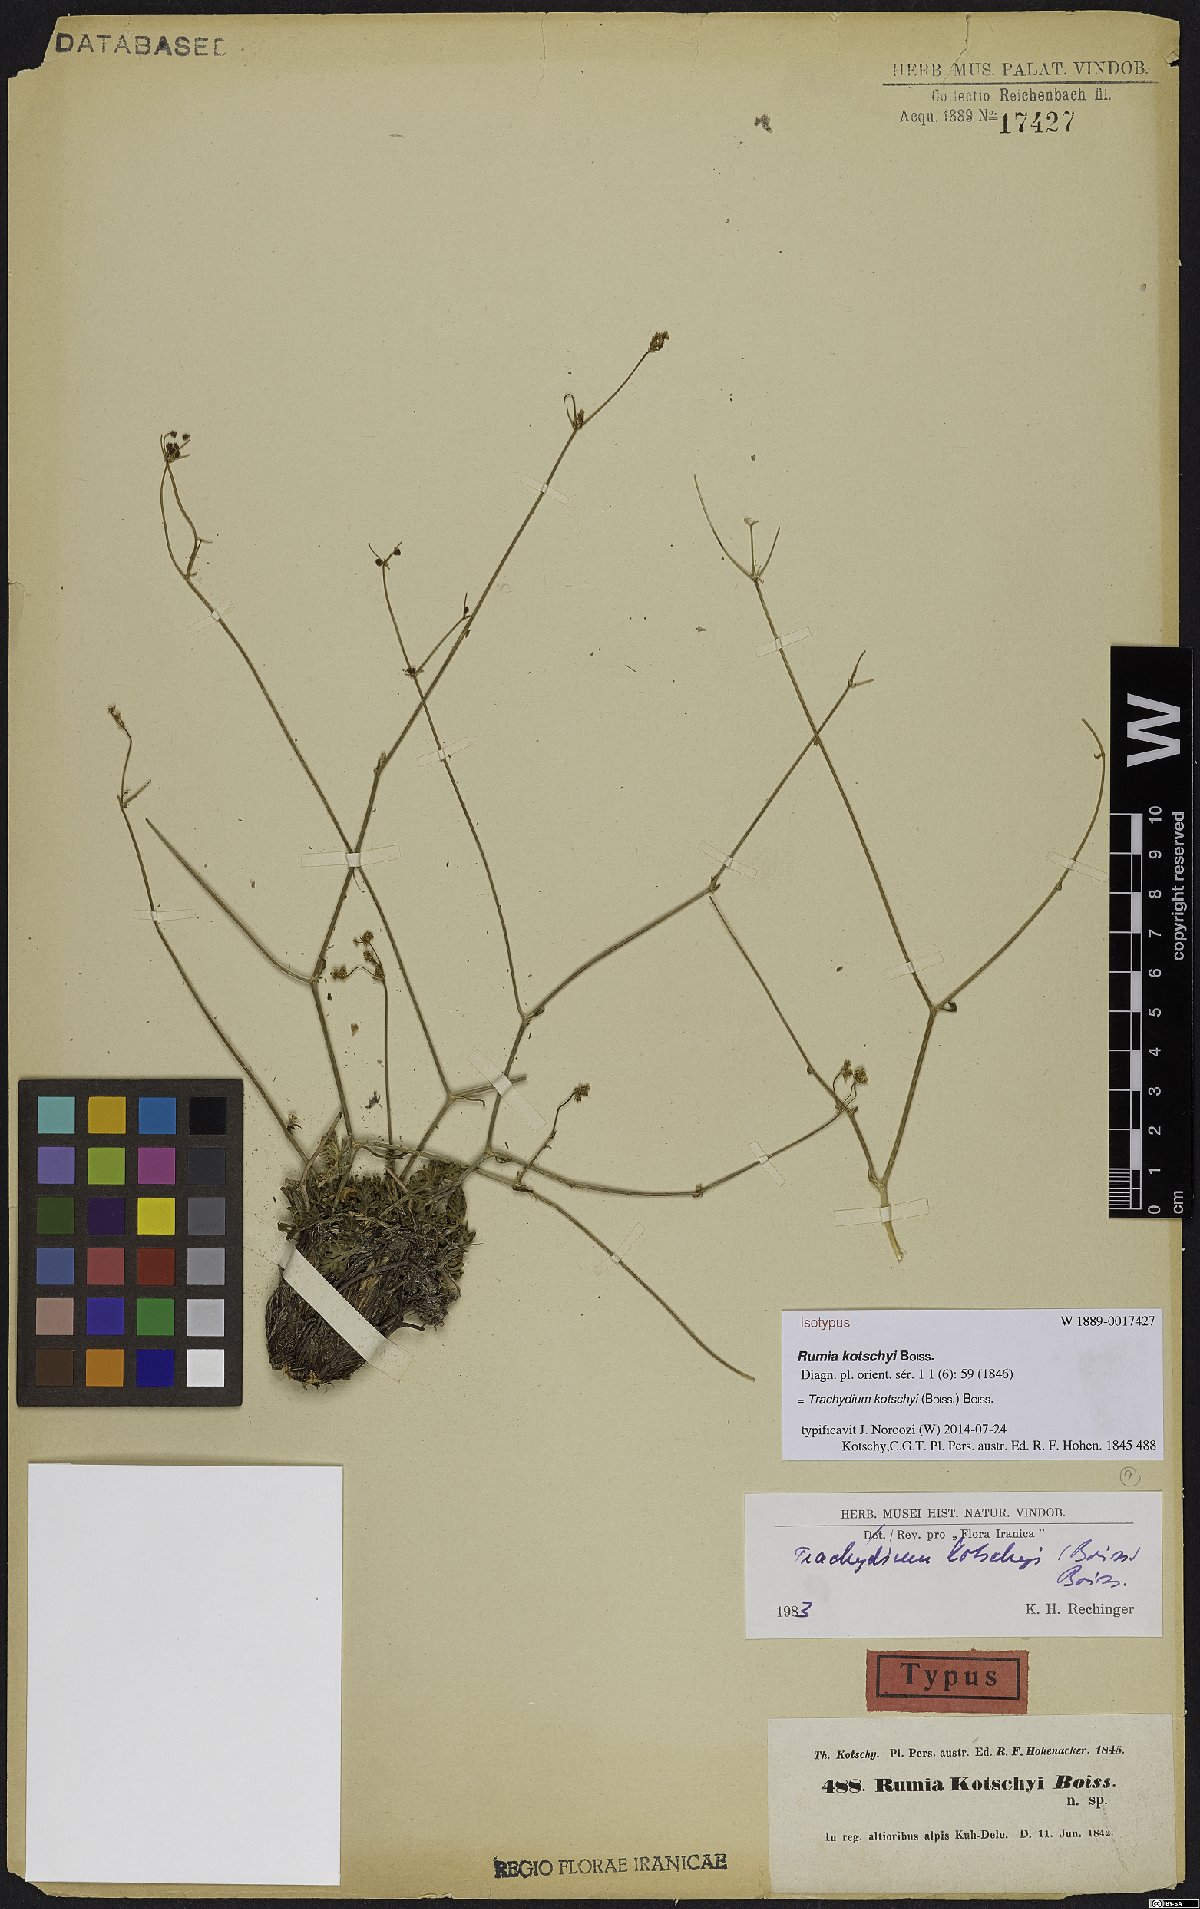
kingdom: Plantae
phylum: Tracheophyta
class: Magnoliopsida
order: Apiales
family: Apiaceae
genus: Pseudotrachydium
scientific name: Pseudotrachydium kotschyi
